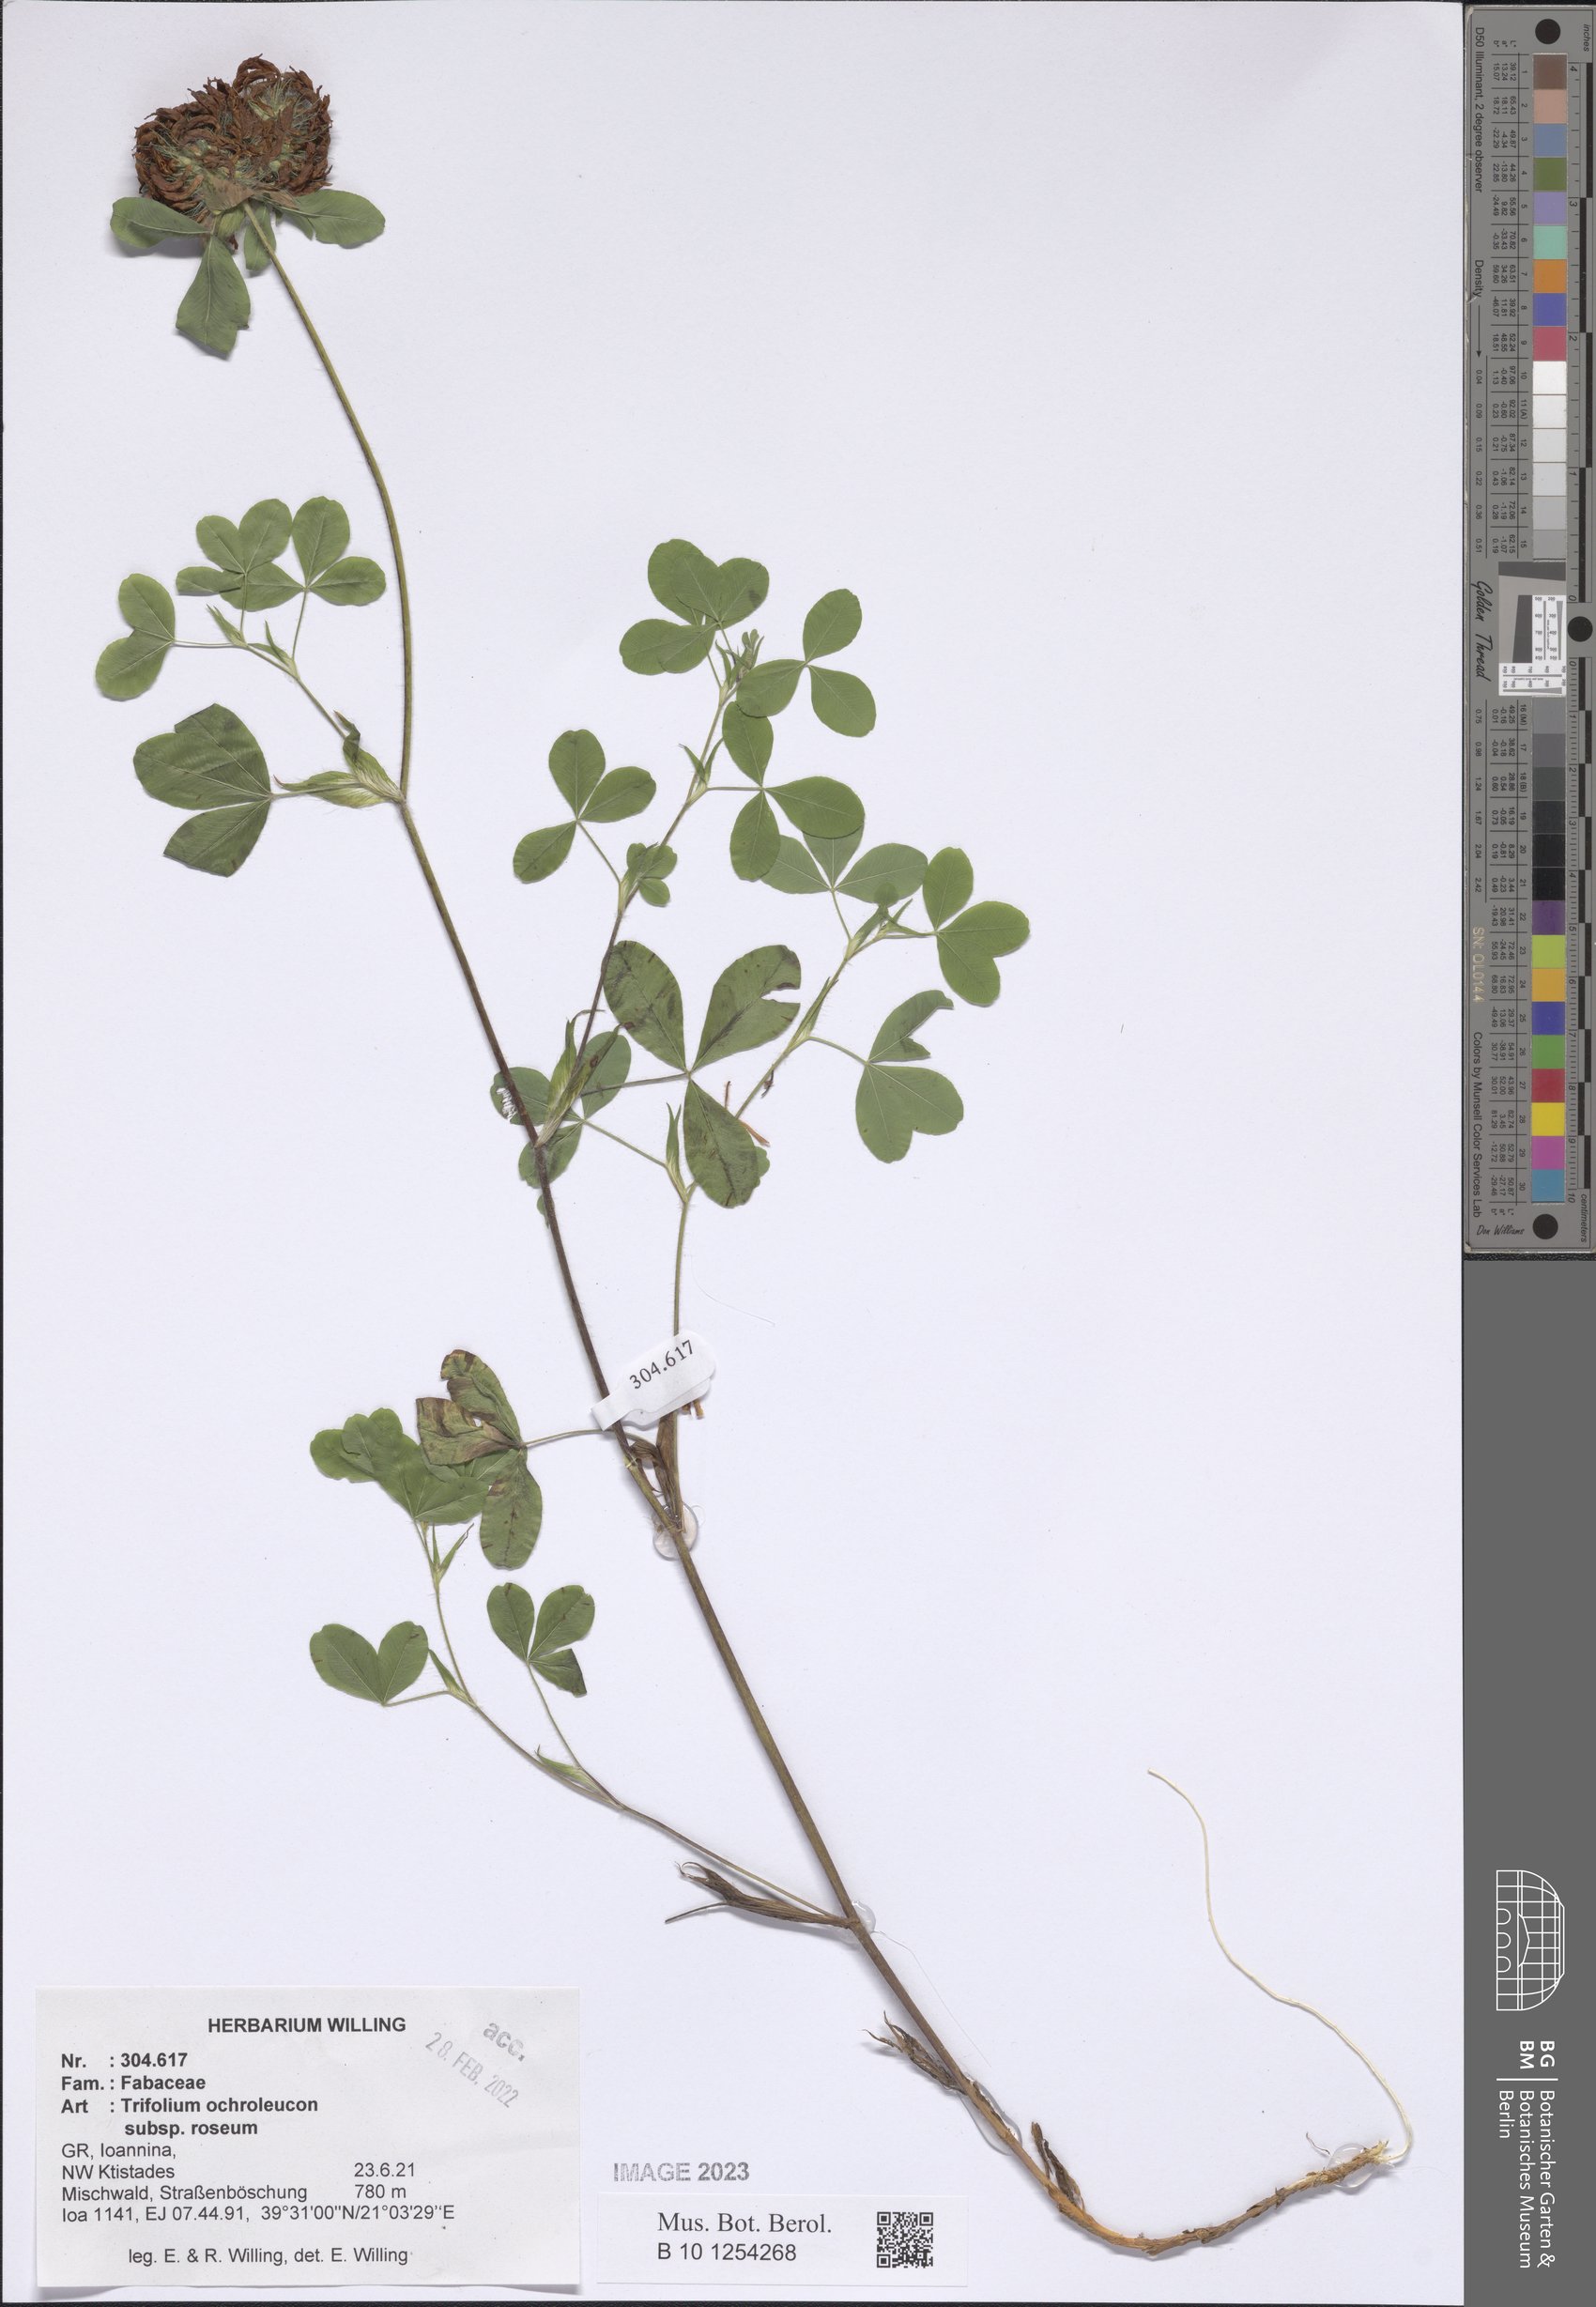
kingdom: Plantae
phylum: Tracheophyta
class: Magnoliopsida
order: Fabales
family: Fabaceae
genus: Trifolium
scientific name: Trifolium ochroleucon
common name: Sulphur clover
